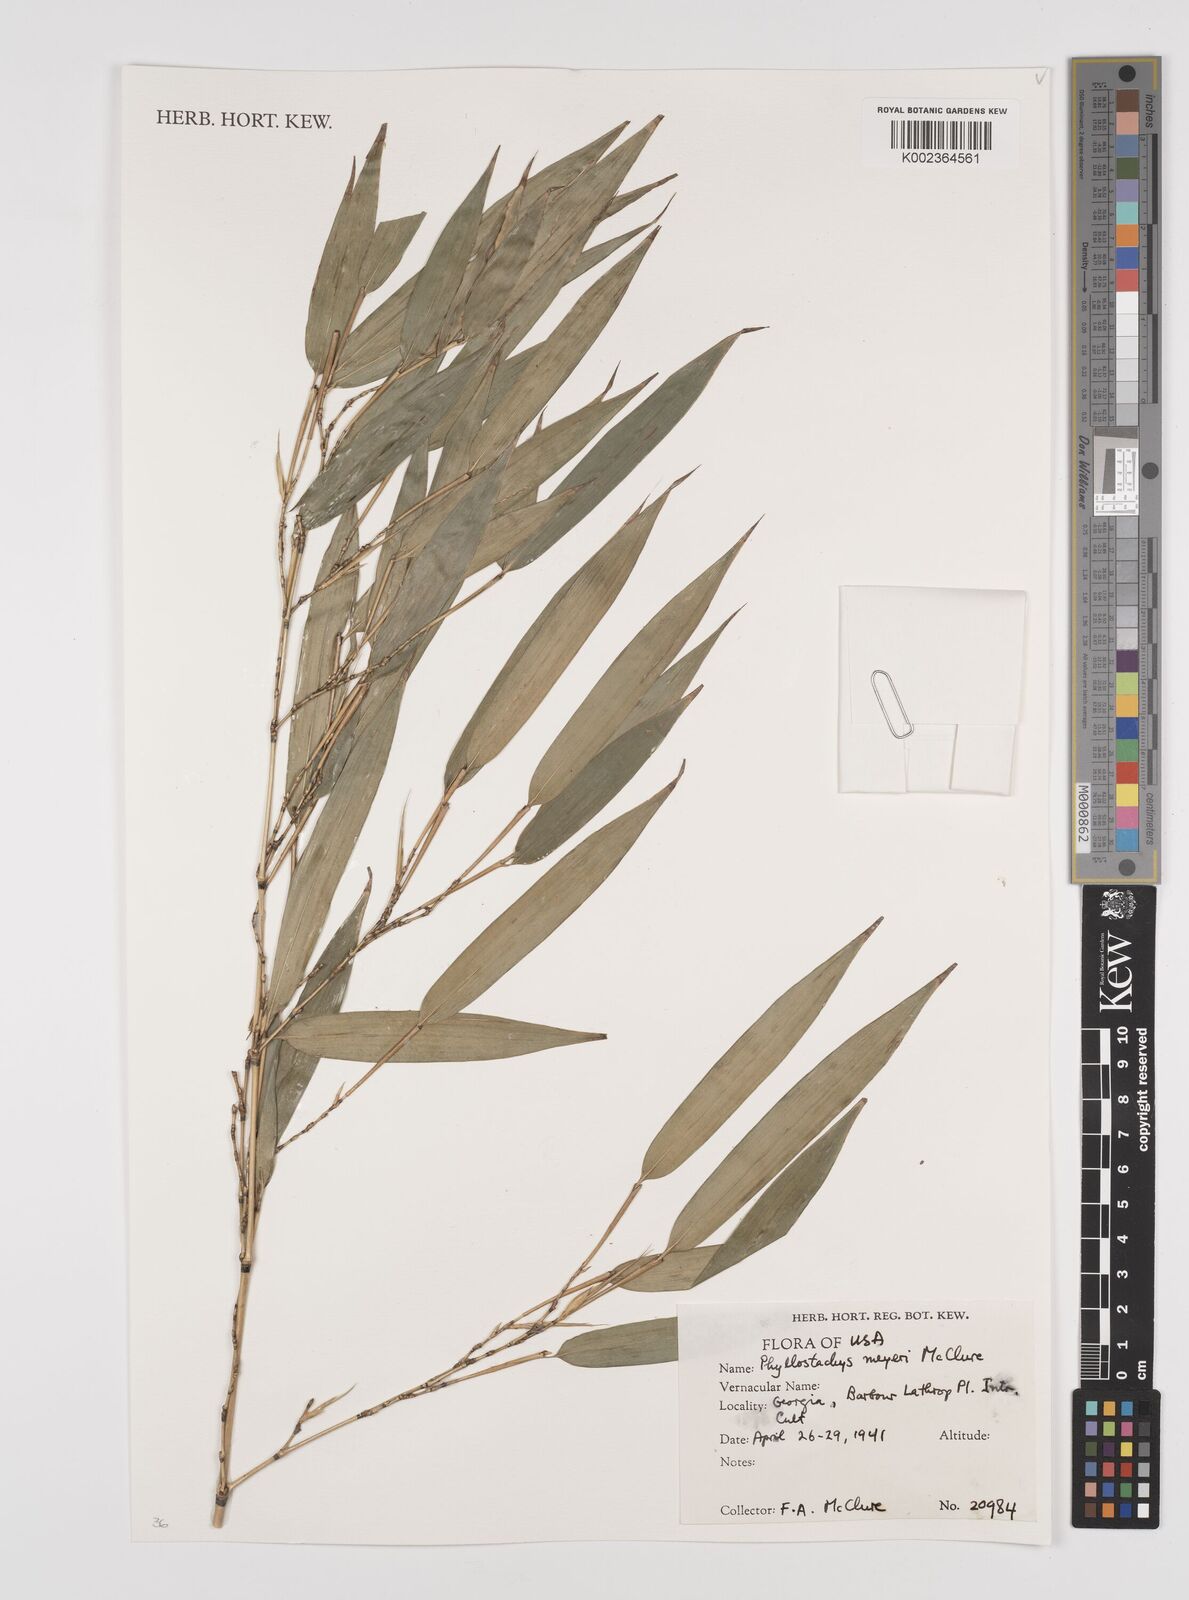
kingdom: Plantae
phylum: Tracheophyta
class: Liliopsida
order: Poales
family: Poaceae
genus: Phyllostachys
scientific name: Phyllostachys meyeri
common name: Meyer's bamboo
